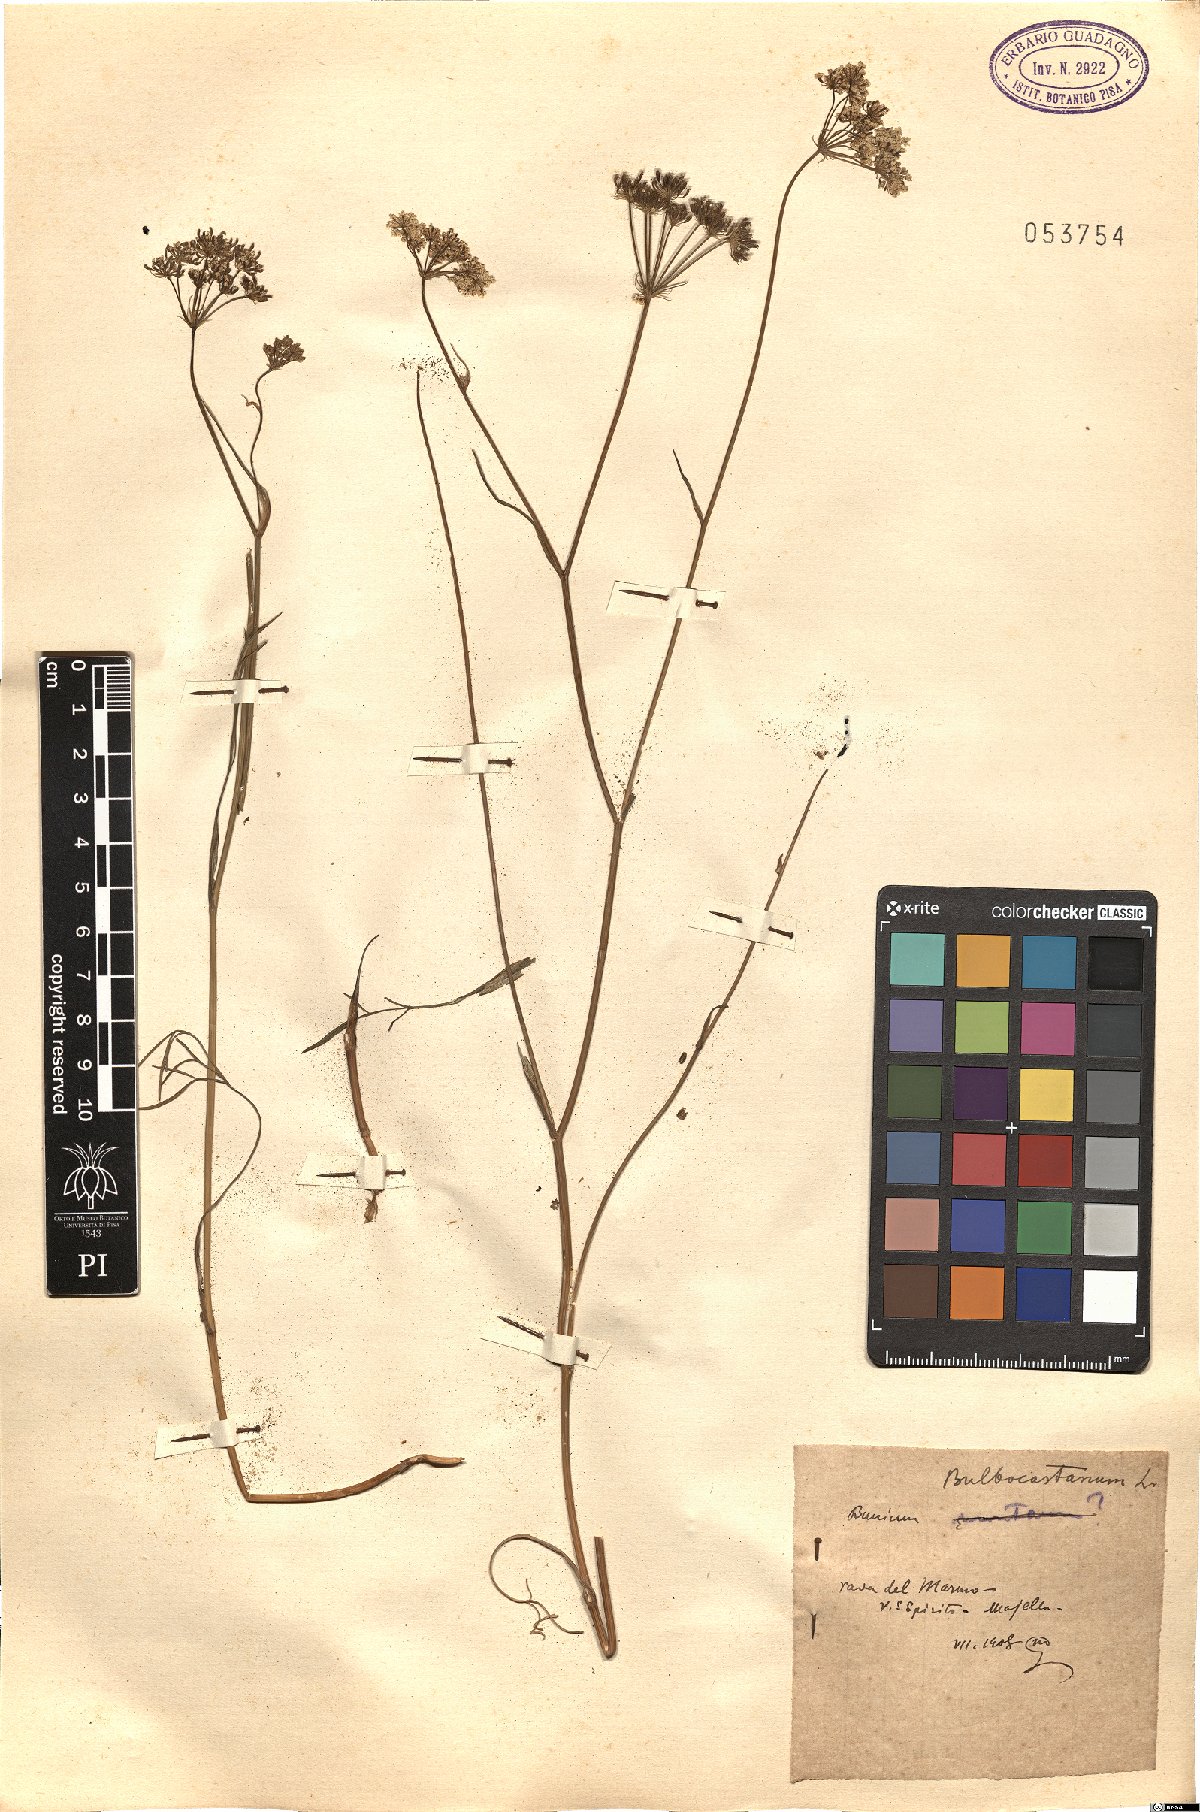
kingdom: Plantae
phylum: Tracheophyta
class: Magnoliopsida
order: Apiales
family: Apiaceae
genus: Bunium
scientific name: Bunium bulbocastanum
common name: Great pignut
